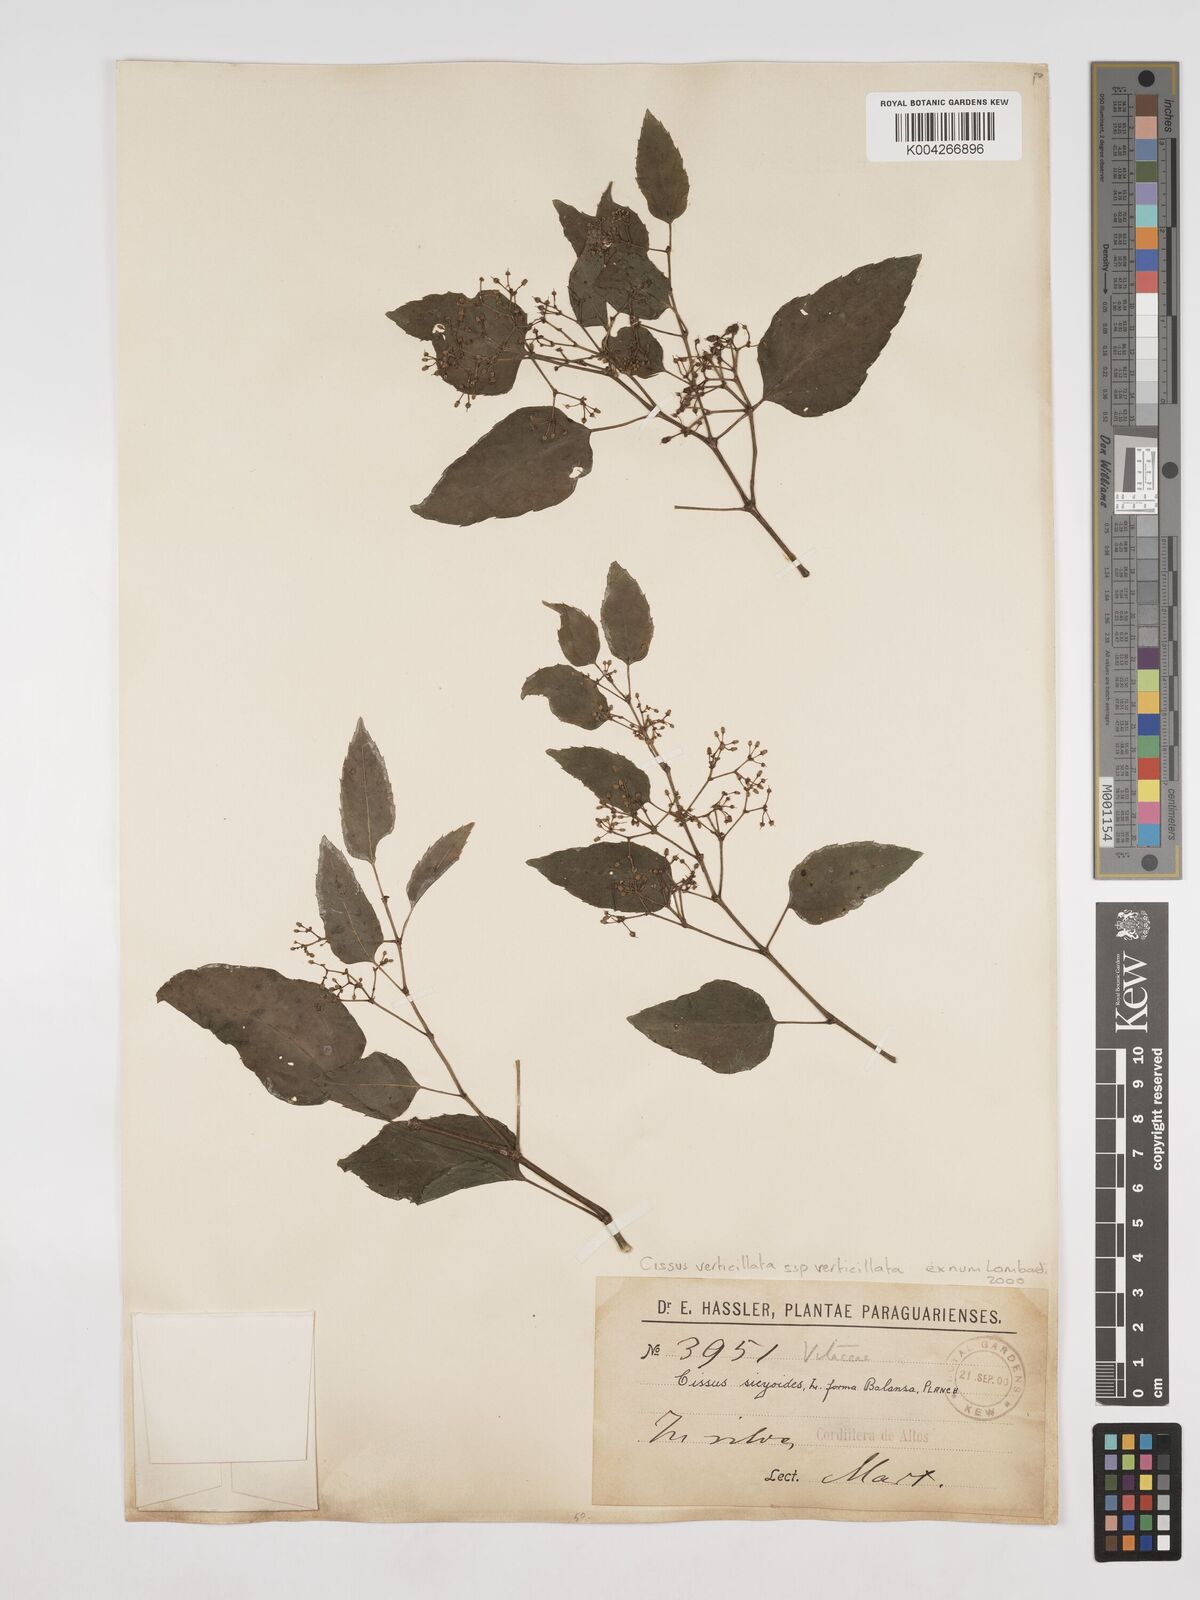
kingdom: Plantae
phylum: Tracheophyta
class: Magnoliopsida
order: Vitales
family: Vitaceae
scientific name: Vitaceae
